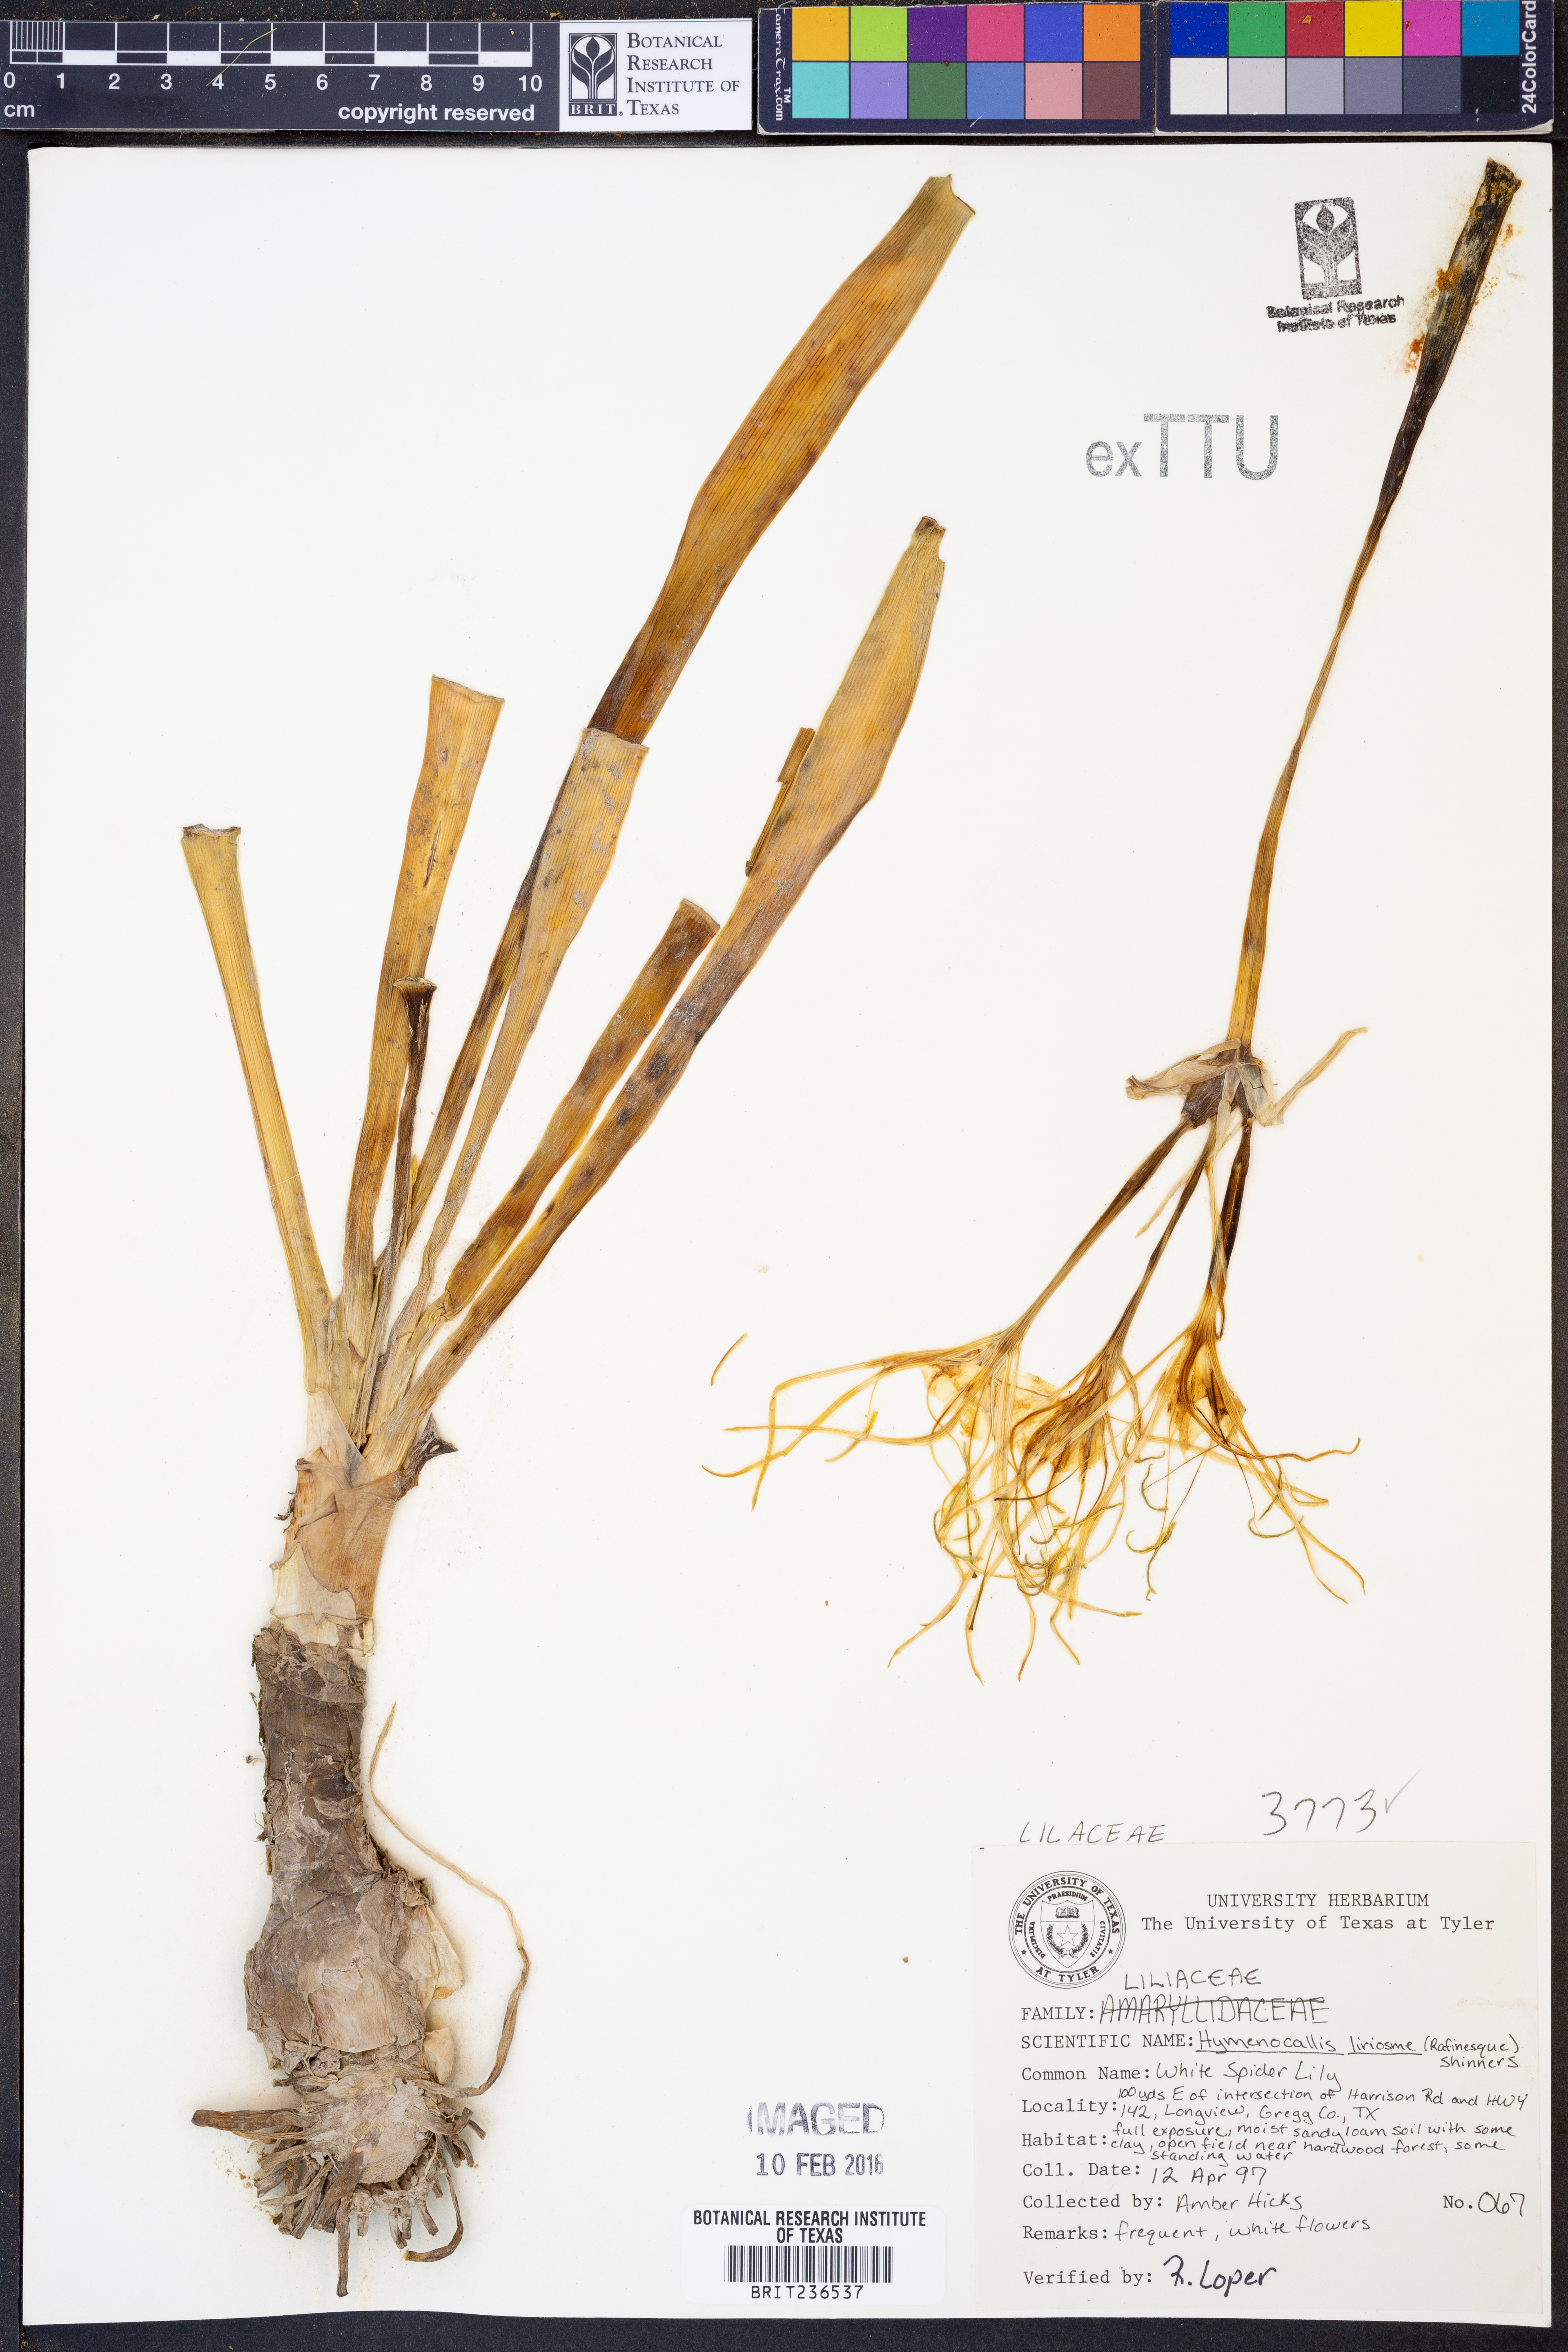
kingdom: Plantae
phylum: Tracheophyta
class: Liliopsida
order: Asparagales
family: Amaryllidaceae
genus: Hymenocallis
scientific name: Hymenocallis liriosme
